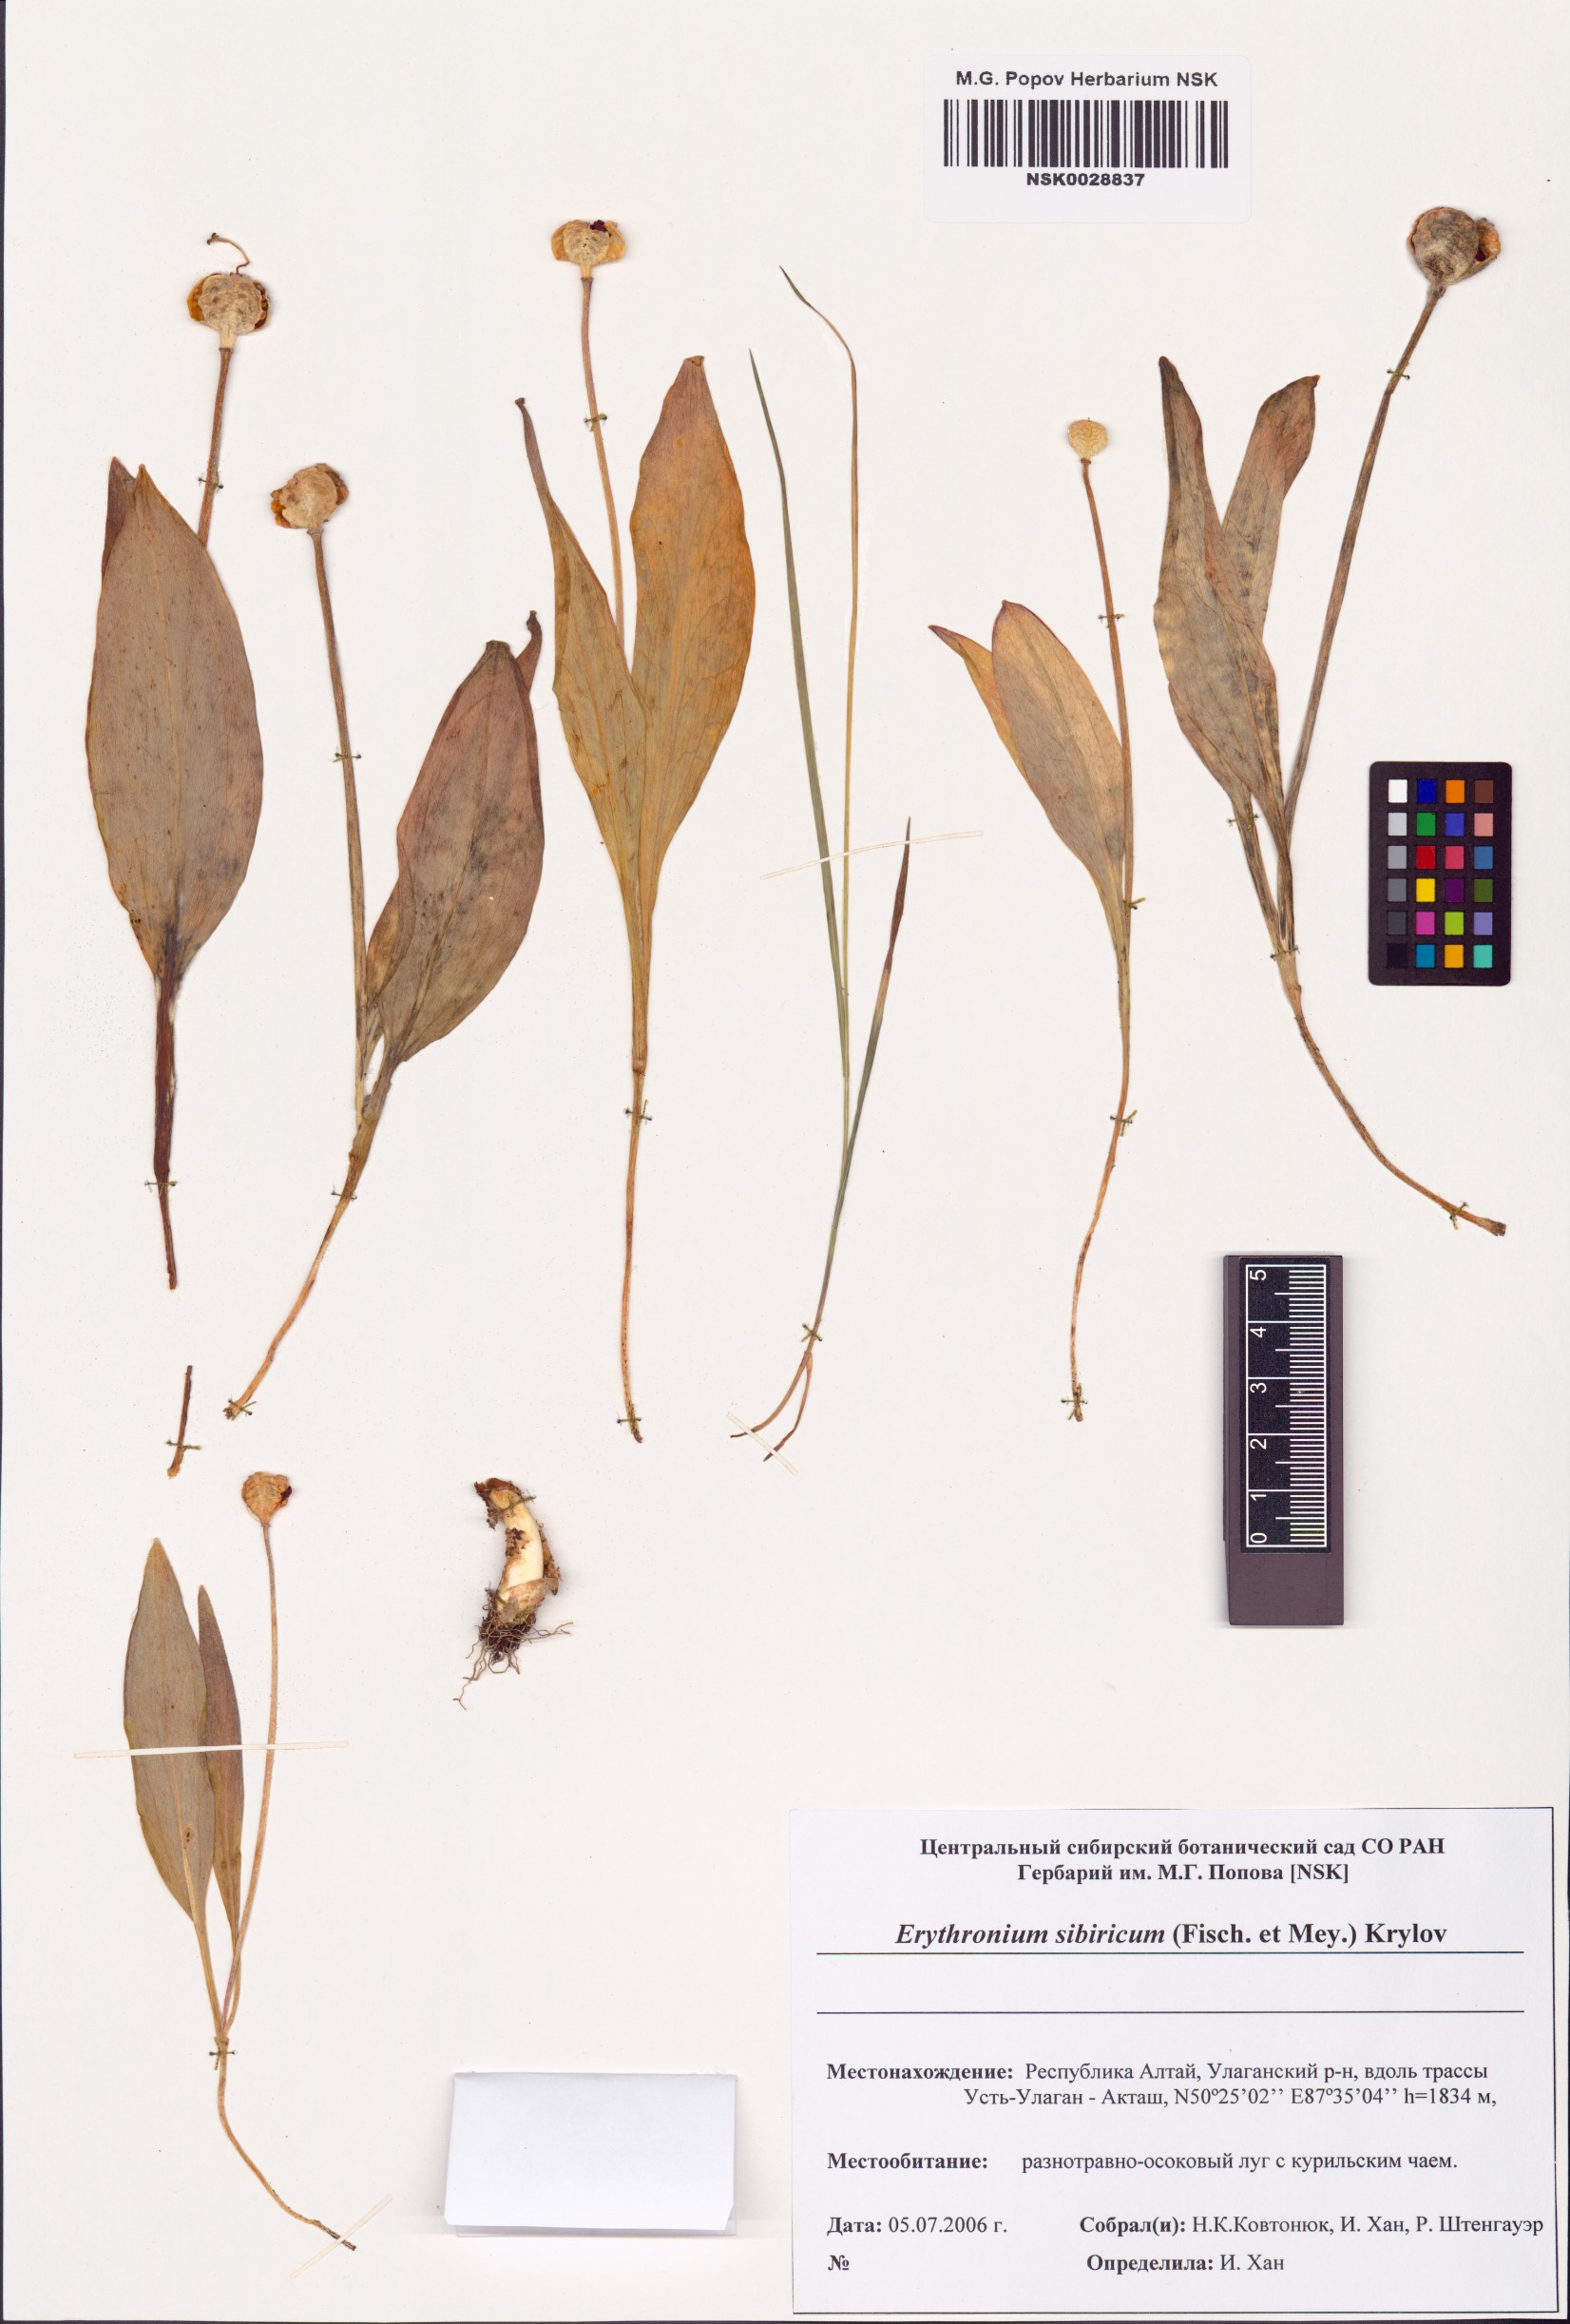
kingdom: Plantae
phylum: Tracheophyta
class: Liliopsida
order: Liliales
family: Liliaceae
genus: Erythronium
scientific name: Erythronium sibiricum
